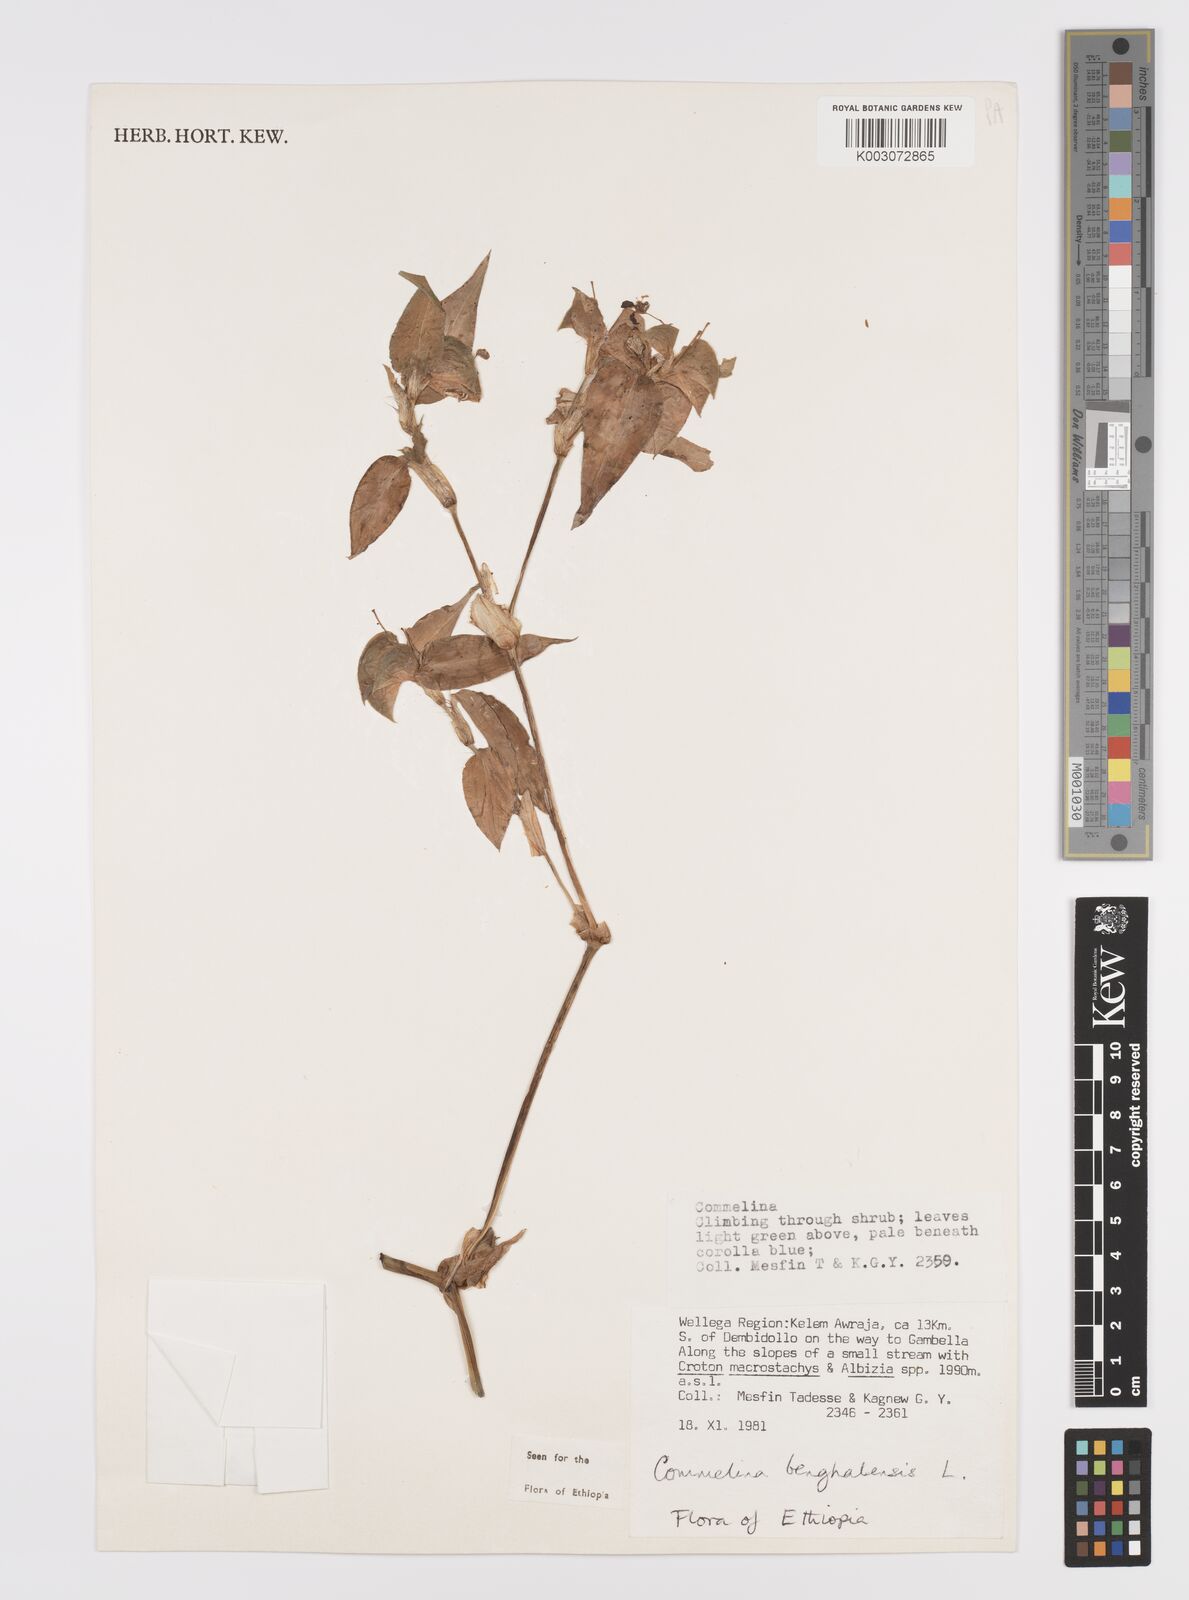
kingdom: Plantae
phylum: Tracheophyta
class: Liliopsida
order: Commelinales
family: Commelinaceae
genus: Commelina
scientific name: Commelina benghalensis
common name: Jio
